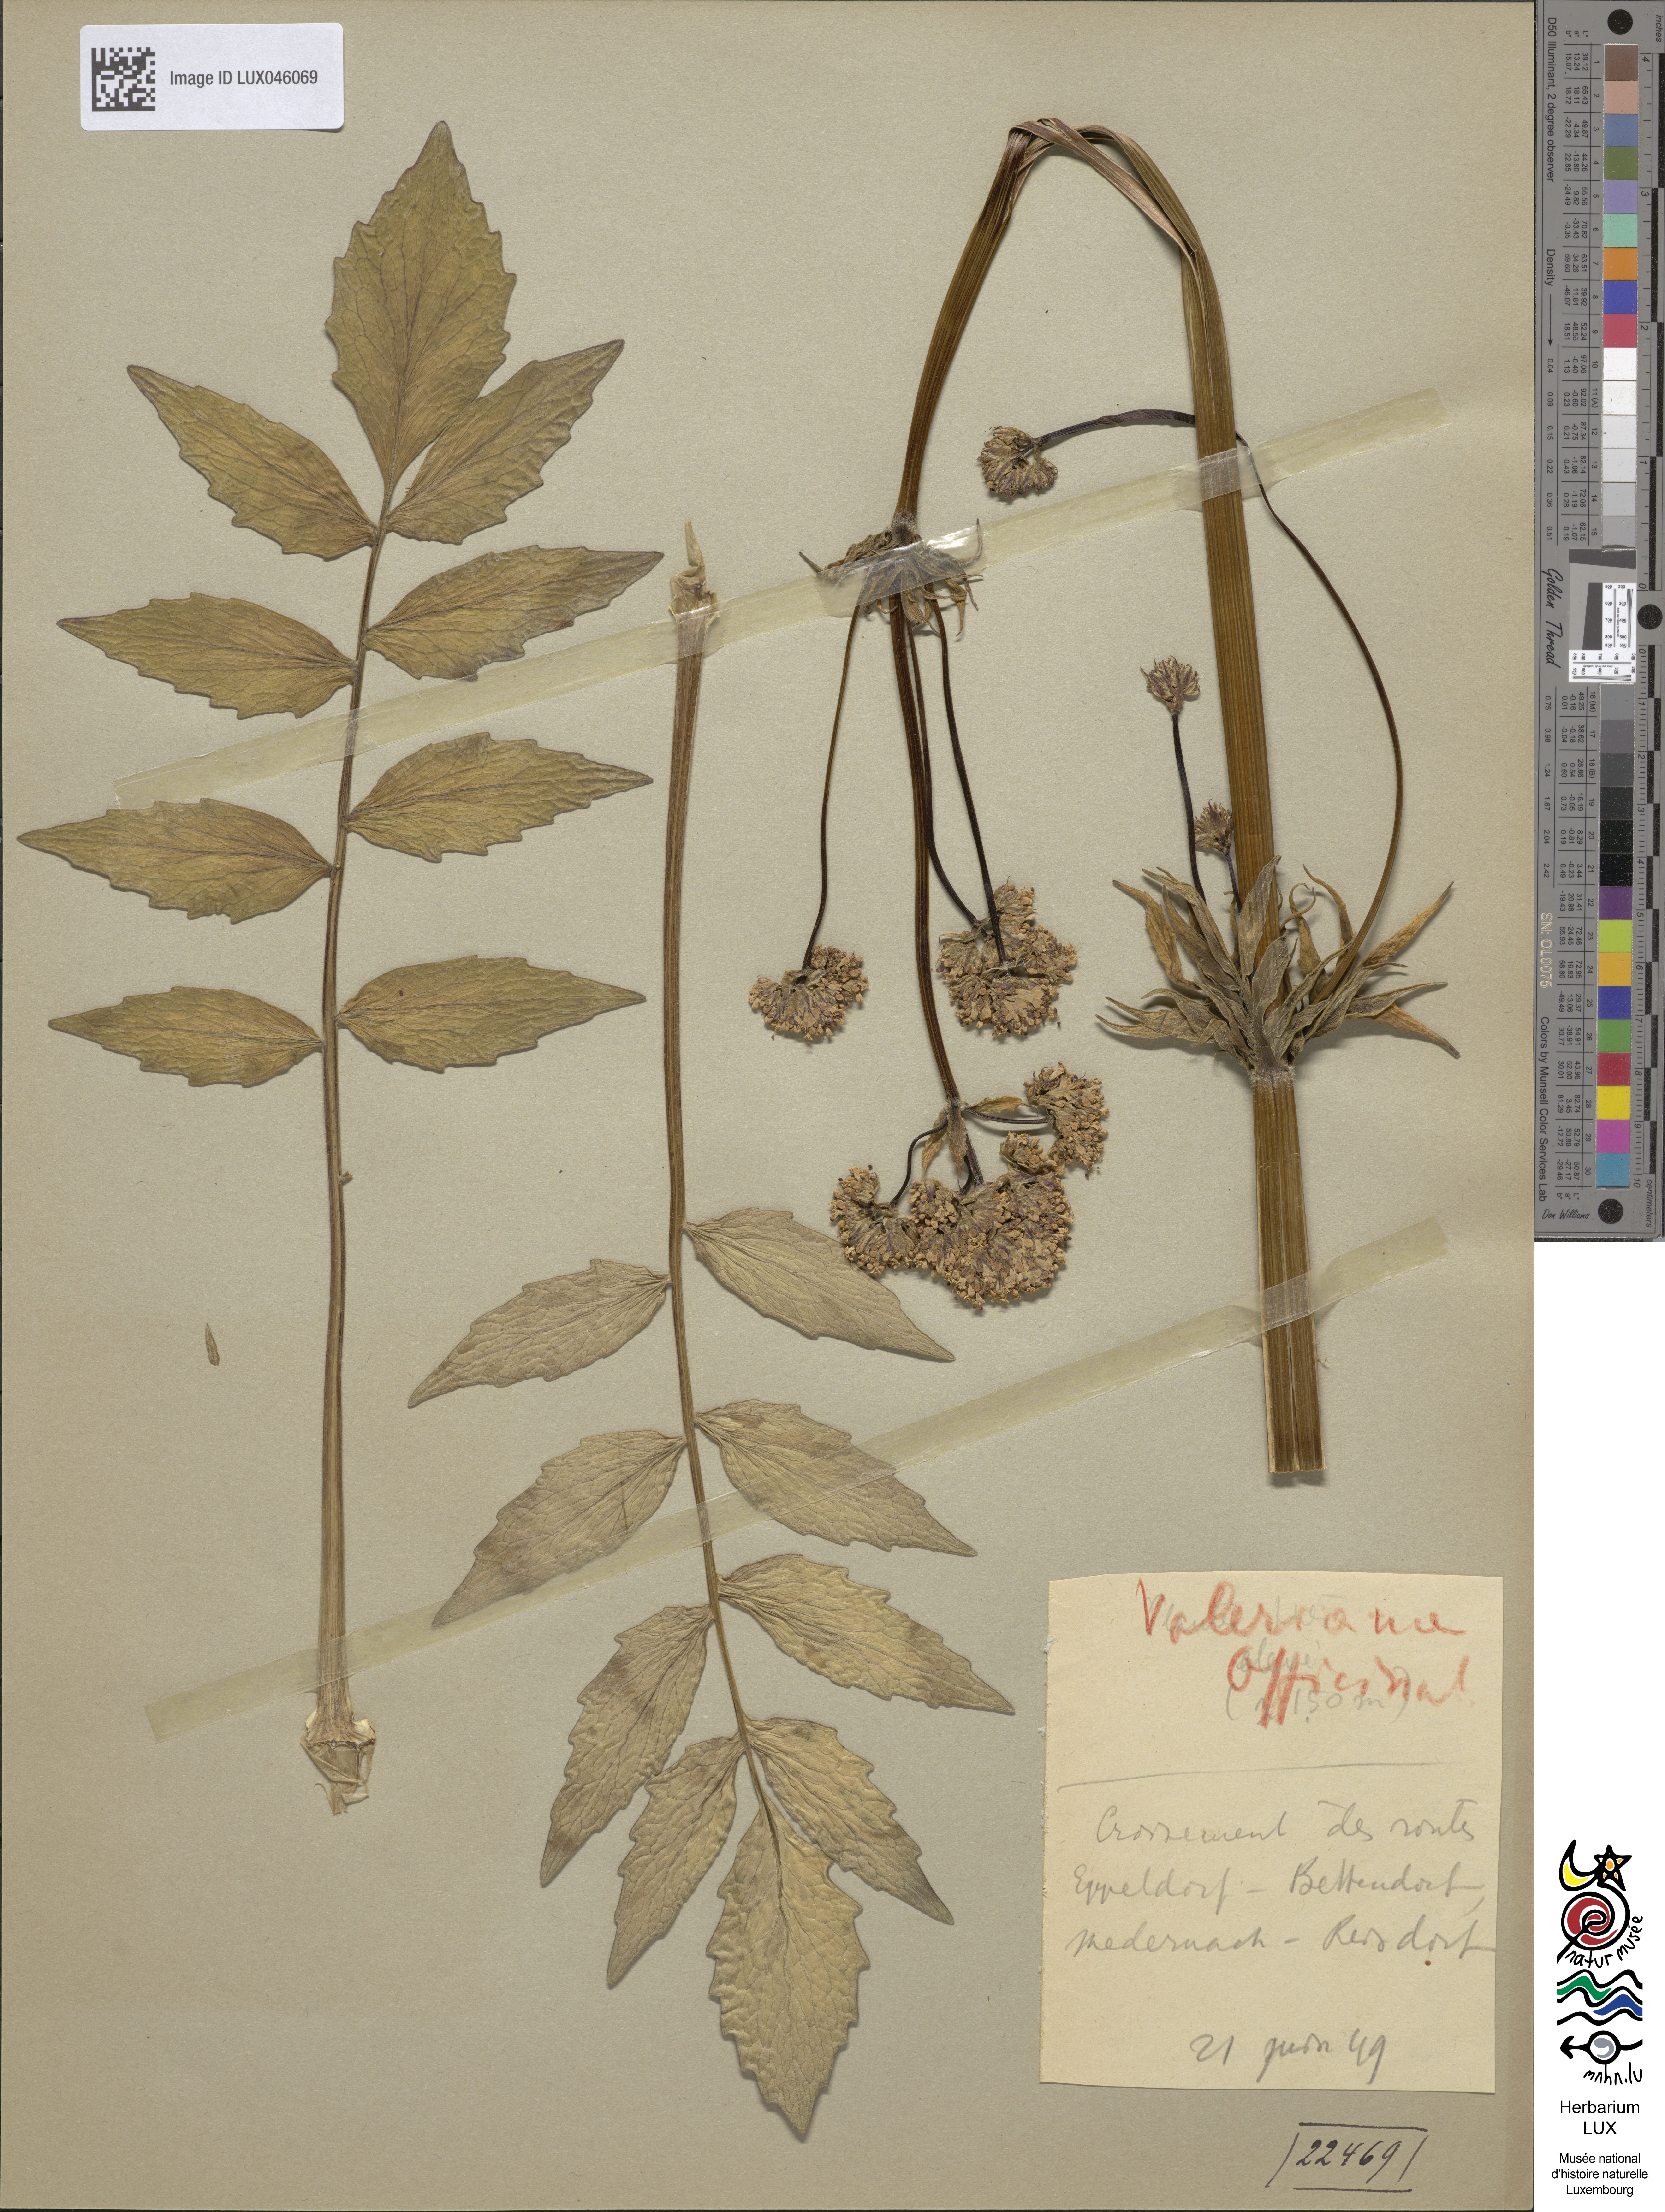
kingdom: Plantae
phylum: Tracheophyta
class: Magnoliopsida
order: Dipsacales
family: Caprifoliaceae
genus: Valeriana
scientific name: Valeriana officinalis
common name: Common valerian
